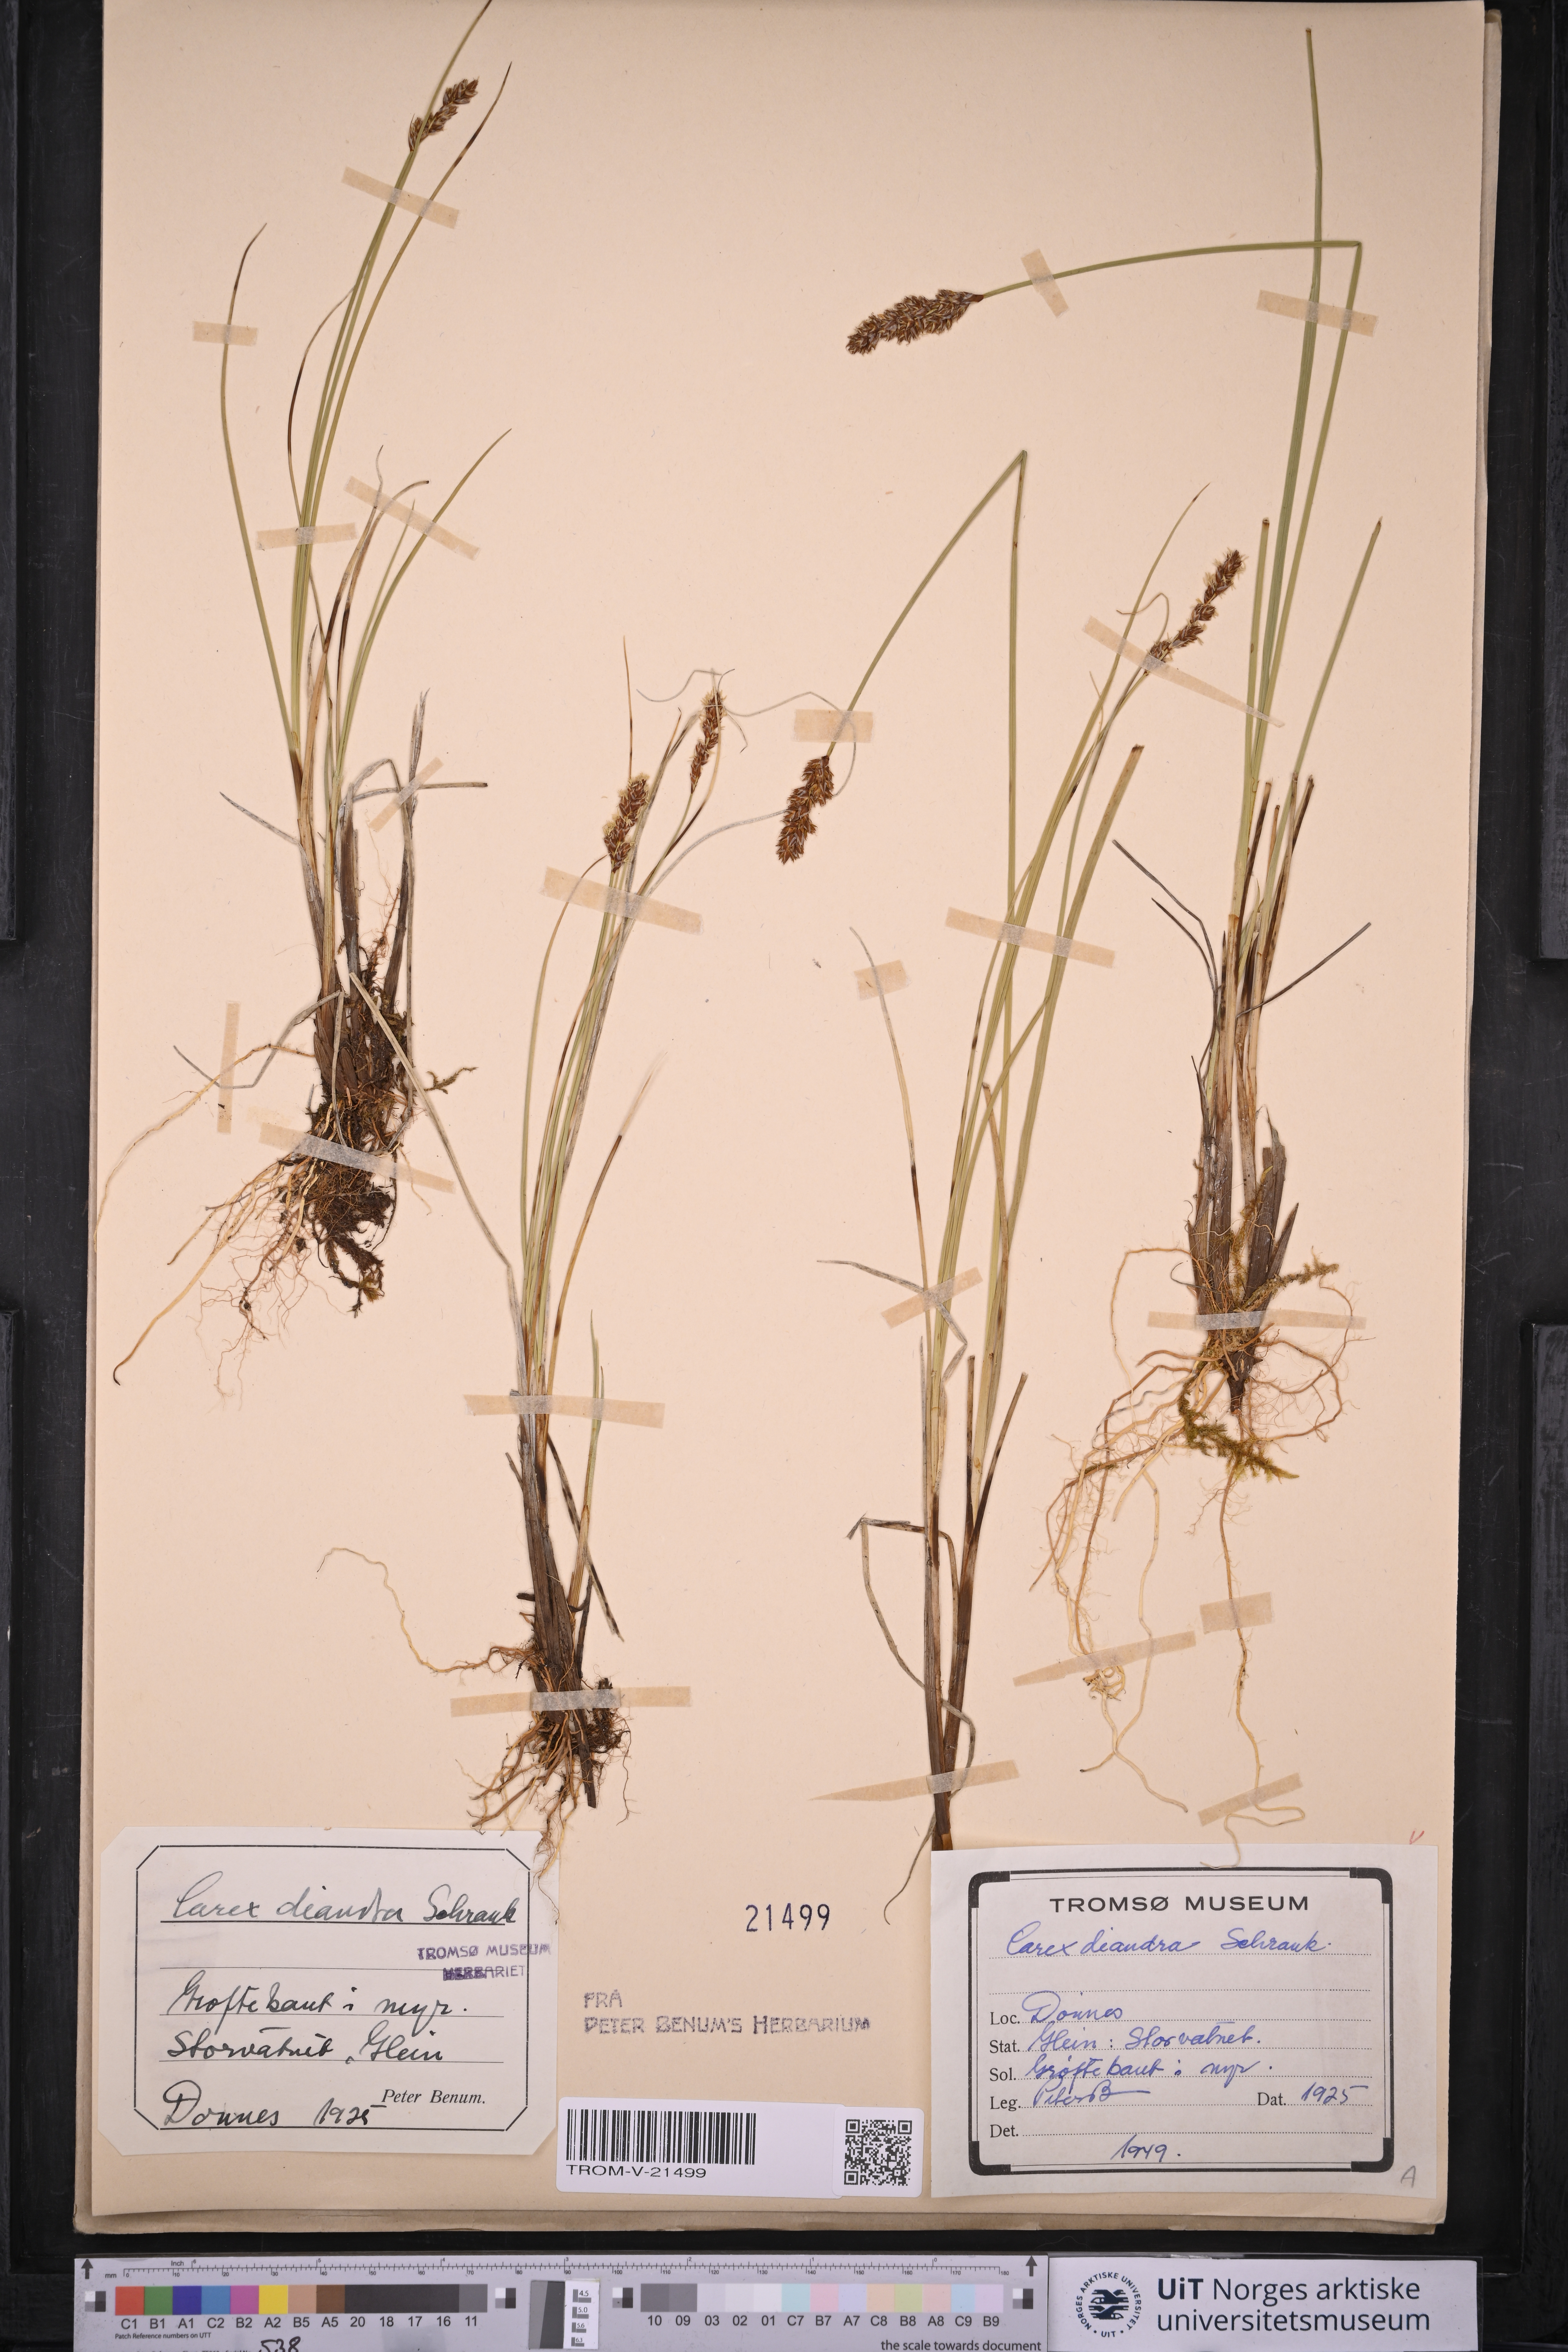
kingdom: Plantae
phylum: Tracheophyta
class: Liliopsida
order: Poales
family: Cyperaceae
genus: Carex
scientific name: Carex diandra
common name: Lesser tussock-sedge
